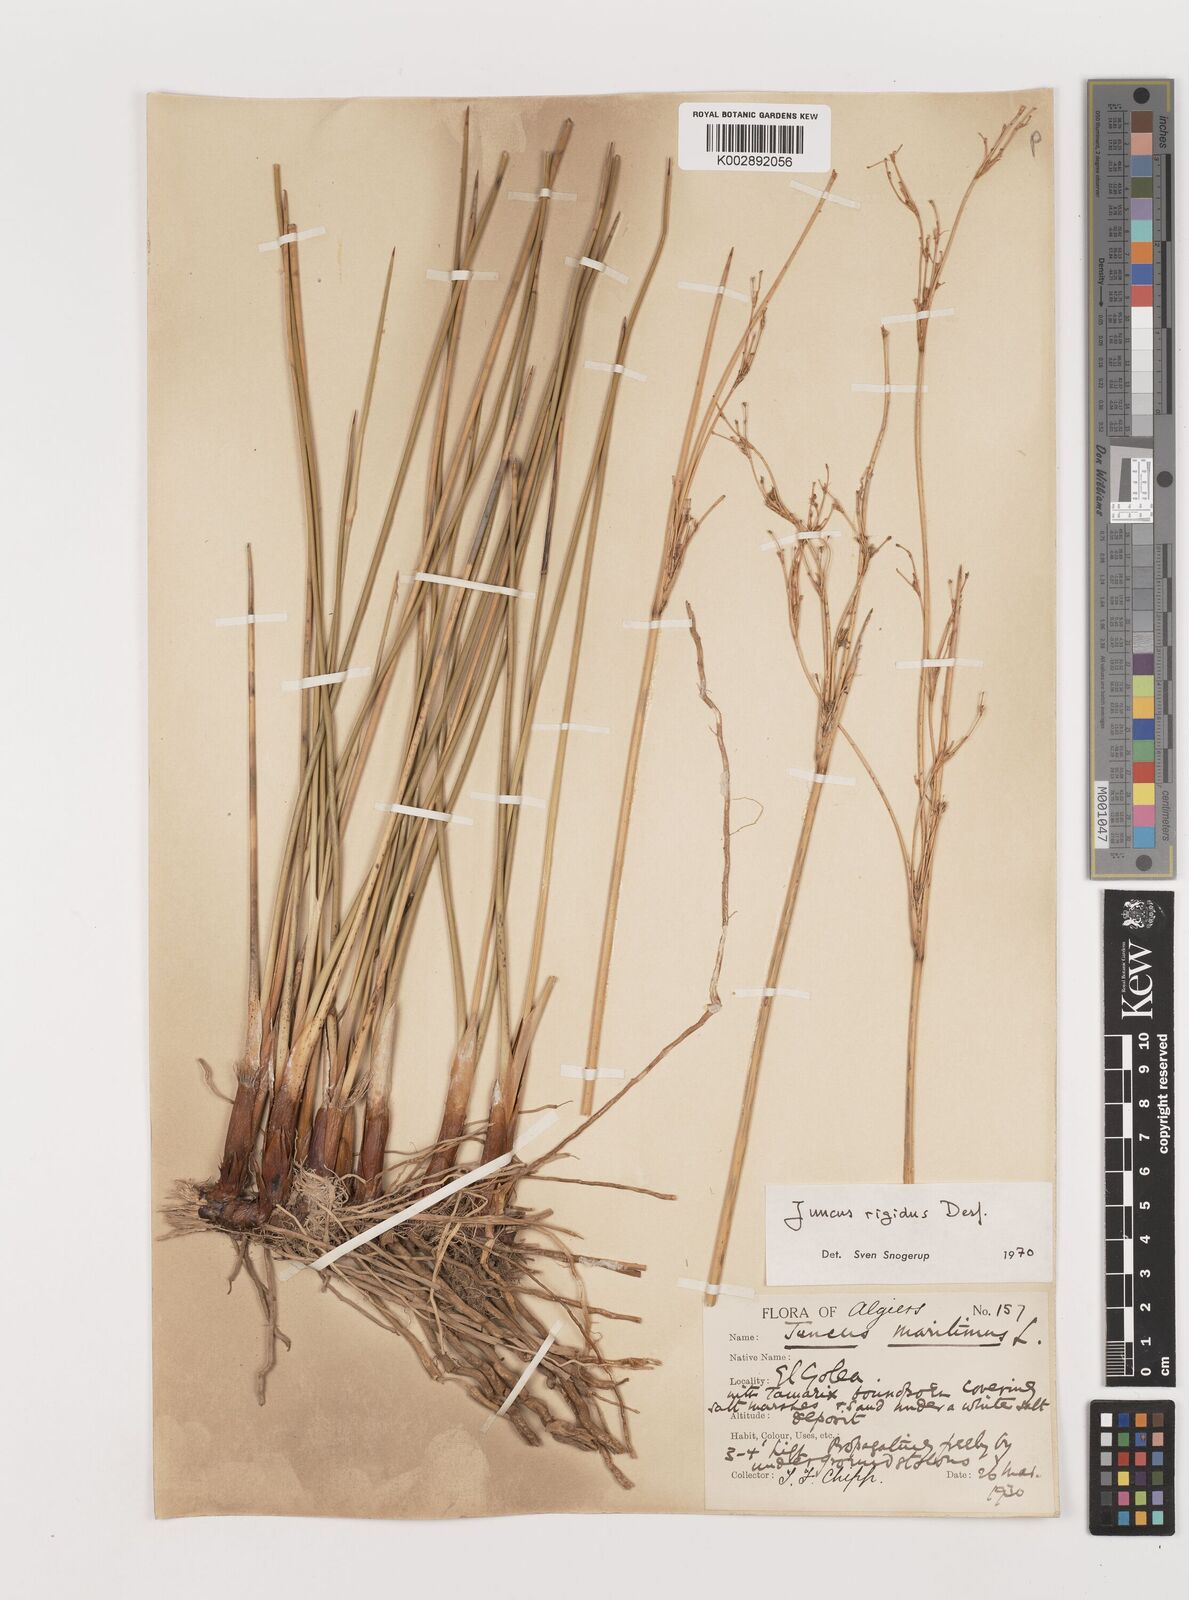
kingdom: Plantae
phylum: Tracheophyta
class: Liliopsida
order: Poales
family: Juncaceae
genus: Juncus
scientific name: Juncus rigidus
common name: Hard sea rush
